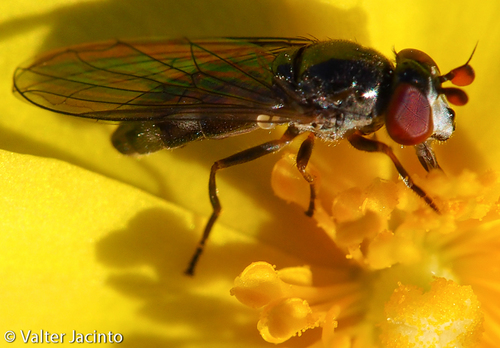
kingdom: Animalia
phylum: Arthropoda
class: Insecta
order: Diptera
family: Syrphidae
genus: Chamaesyrphus
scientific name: Chamaesyrphus lugubris
